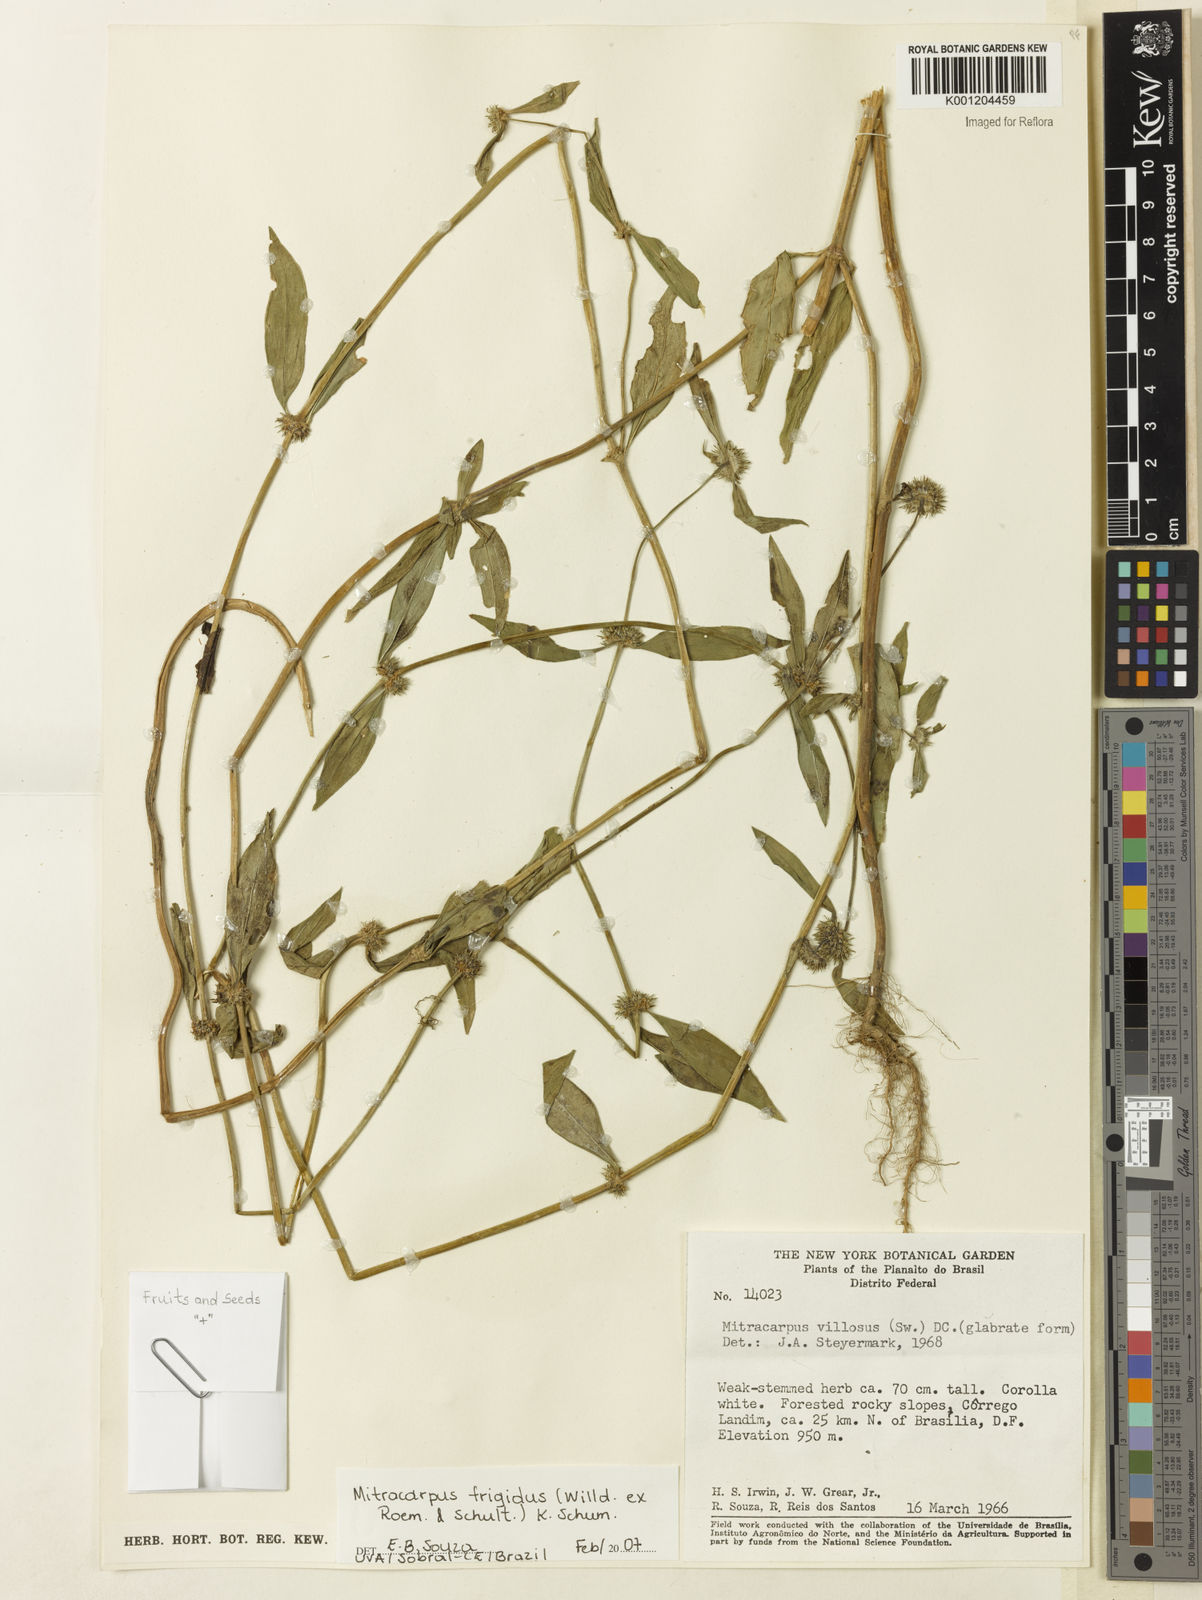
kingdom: Plantae
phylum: Tracheophyta
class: Magnoliopsida
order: Gentianales
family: Rubiaceae
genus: Mitracarpus
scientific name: Mitracarpus frigidus
